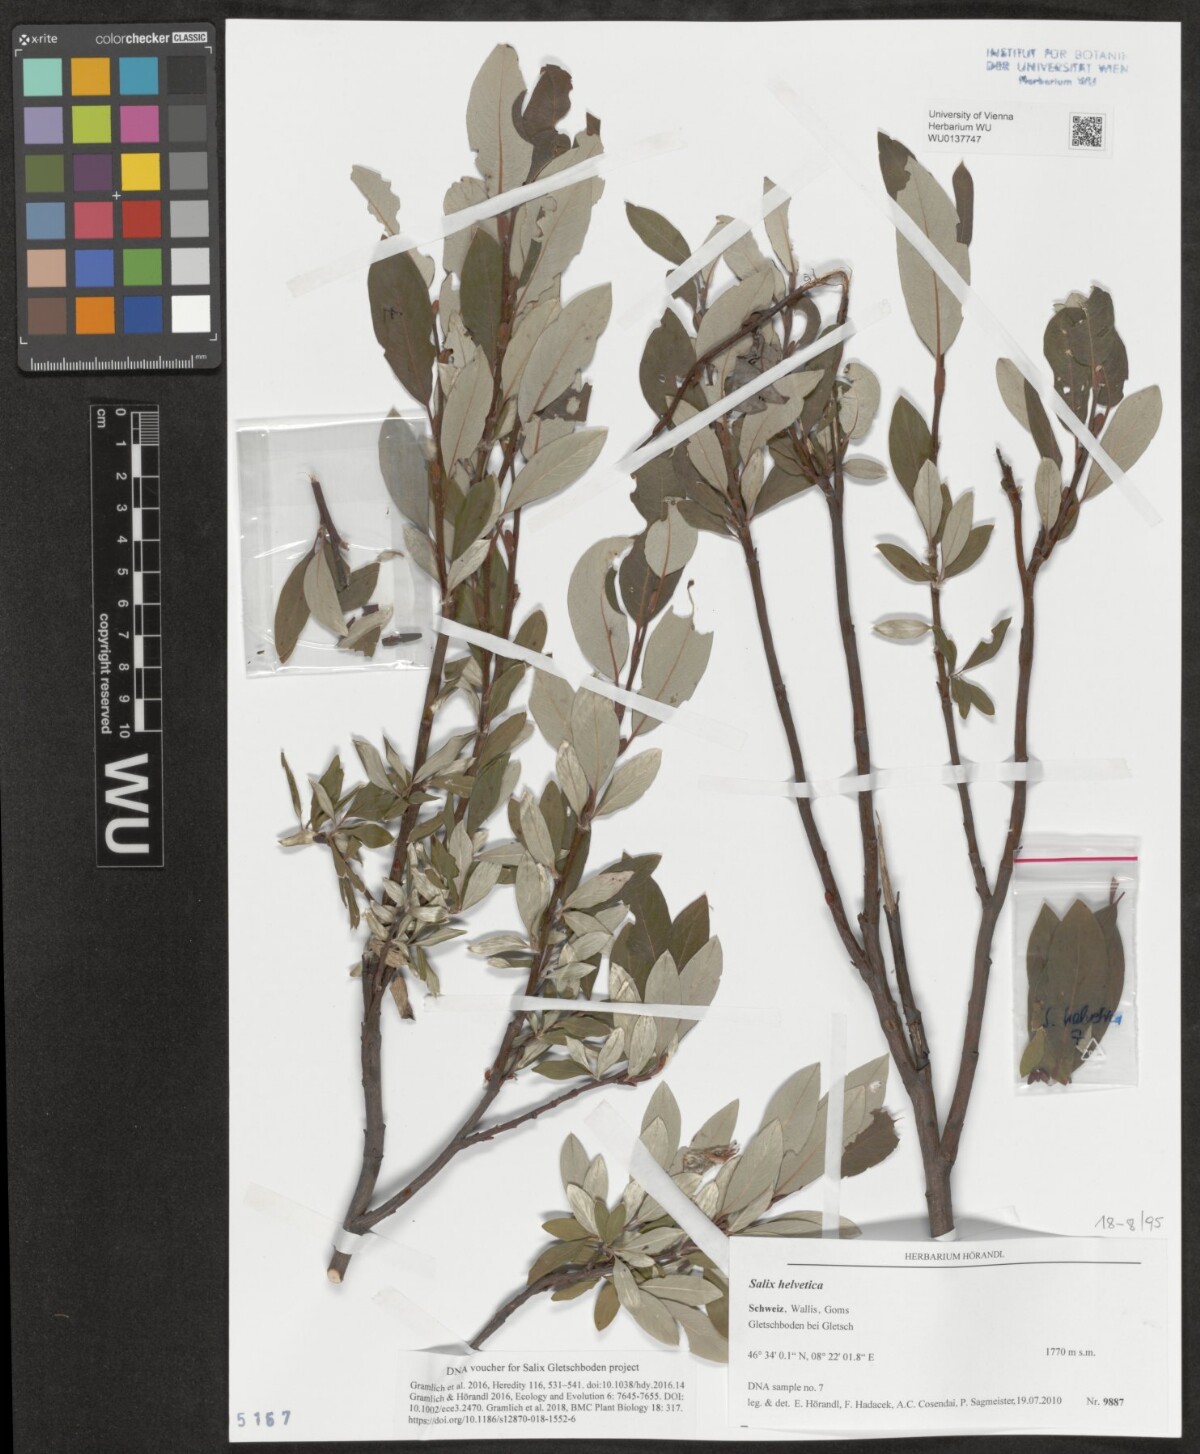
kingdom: Plantae
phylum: Tracheophyta
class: Magnoliopsida
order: Malpighiales
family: Salicaceae
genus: Salix
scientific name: Salix helvetica
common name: Swiss willow
